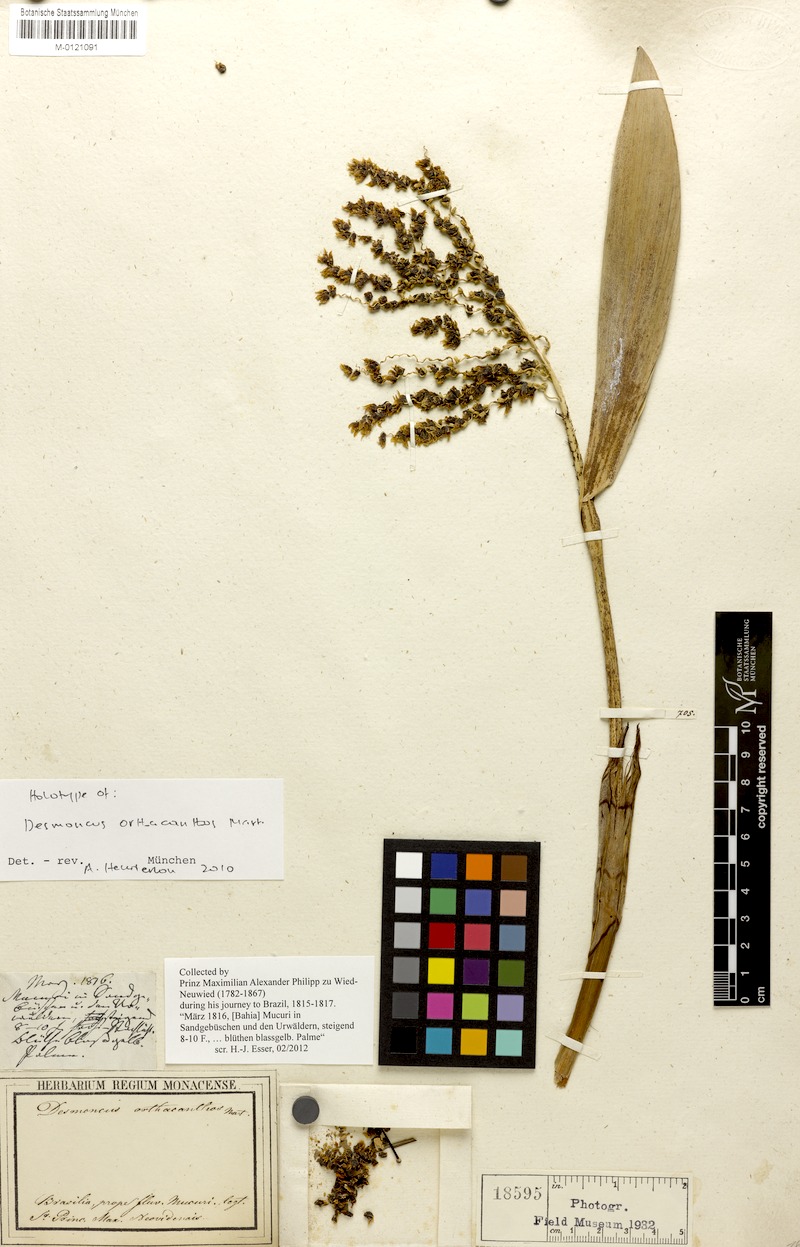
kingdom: Plantae
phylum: Tracheophyta
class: Liliopsida
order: Arecales
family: Arecaceae
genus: Desmoncus
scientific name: Desmoncus orthacanthos
